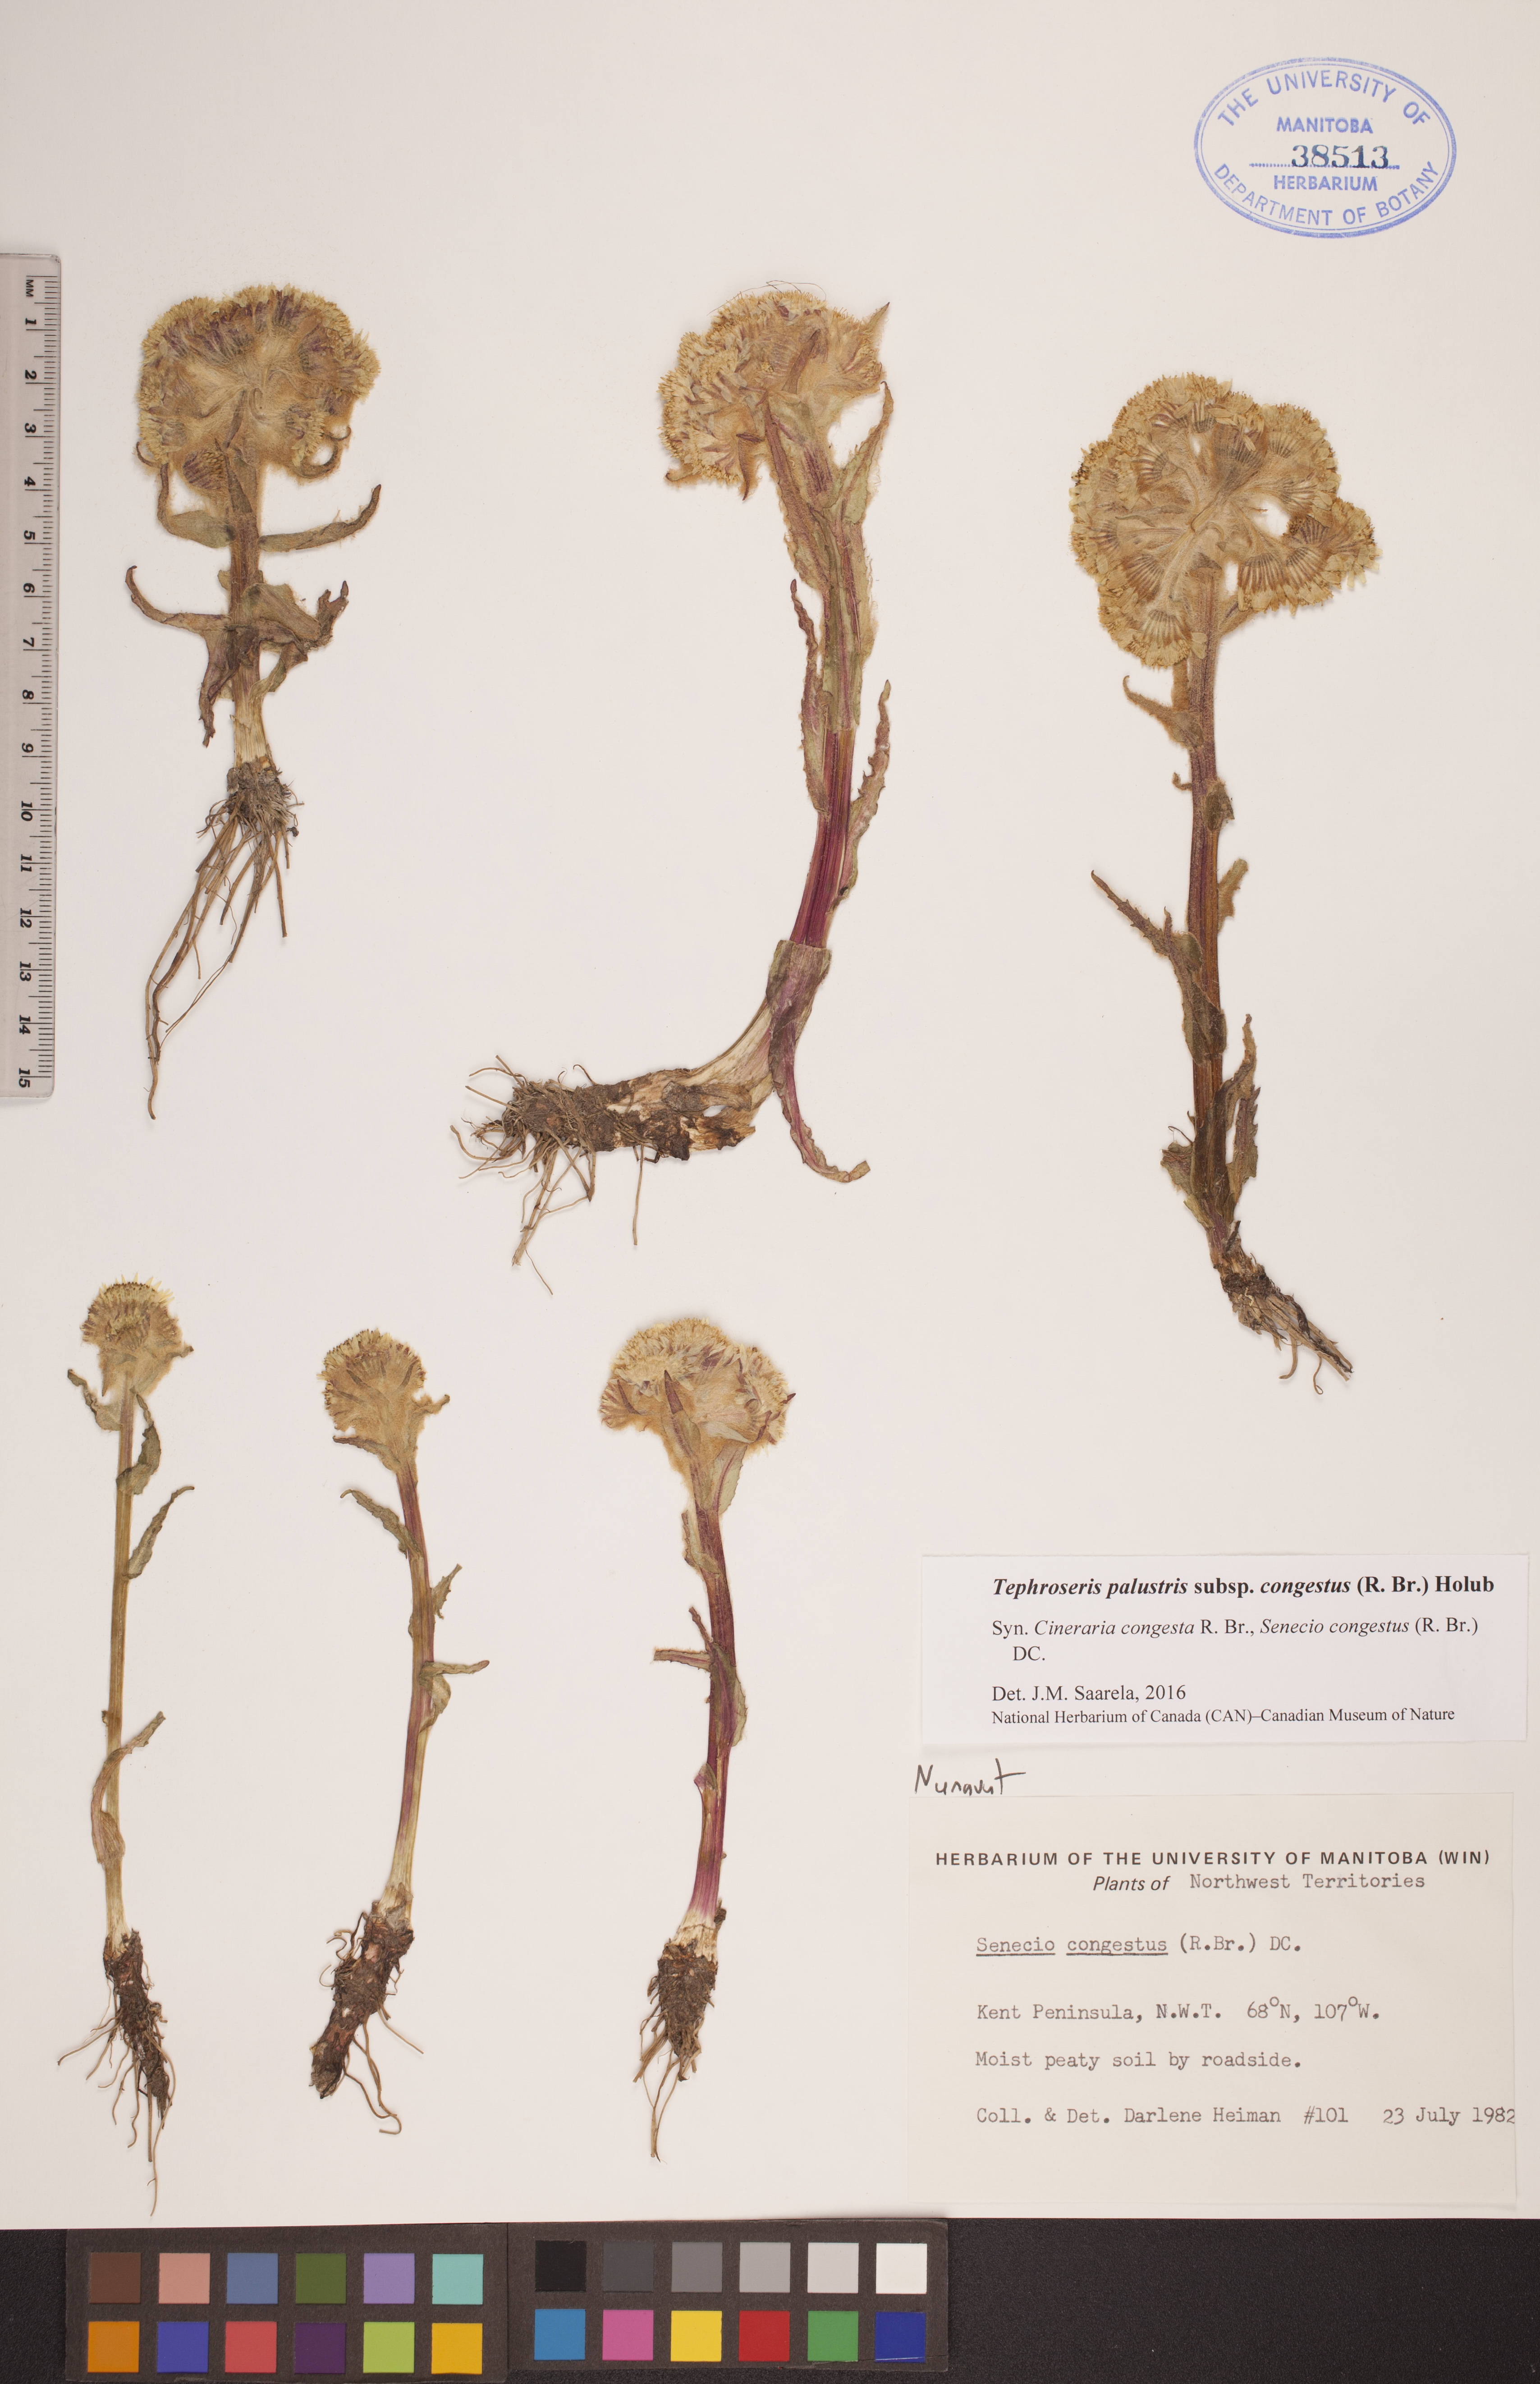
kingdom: Plantae
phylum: Tracheophyta
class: Magnoliopsida
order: Asterales
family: Asteraceae
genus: Tephroseris
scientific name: Tephroseris palustris
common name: Marsh fleawort
